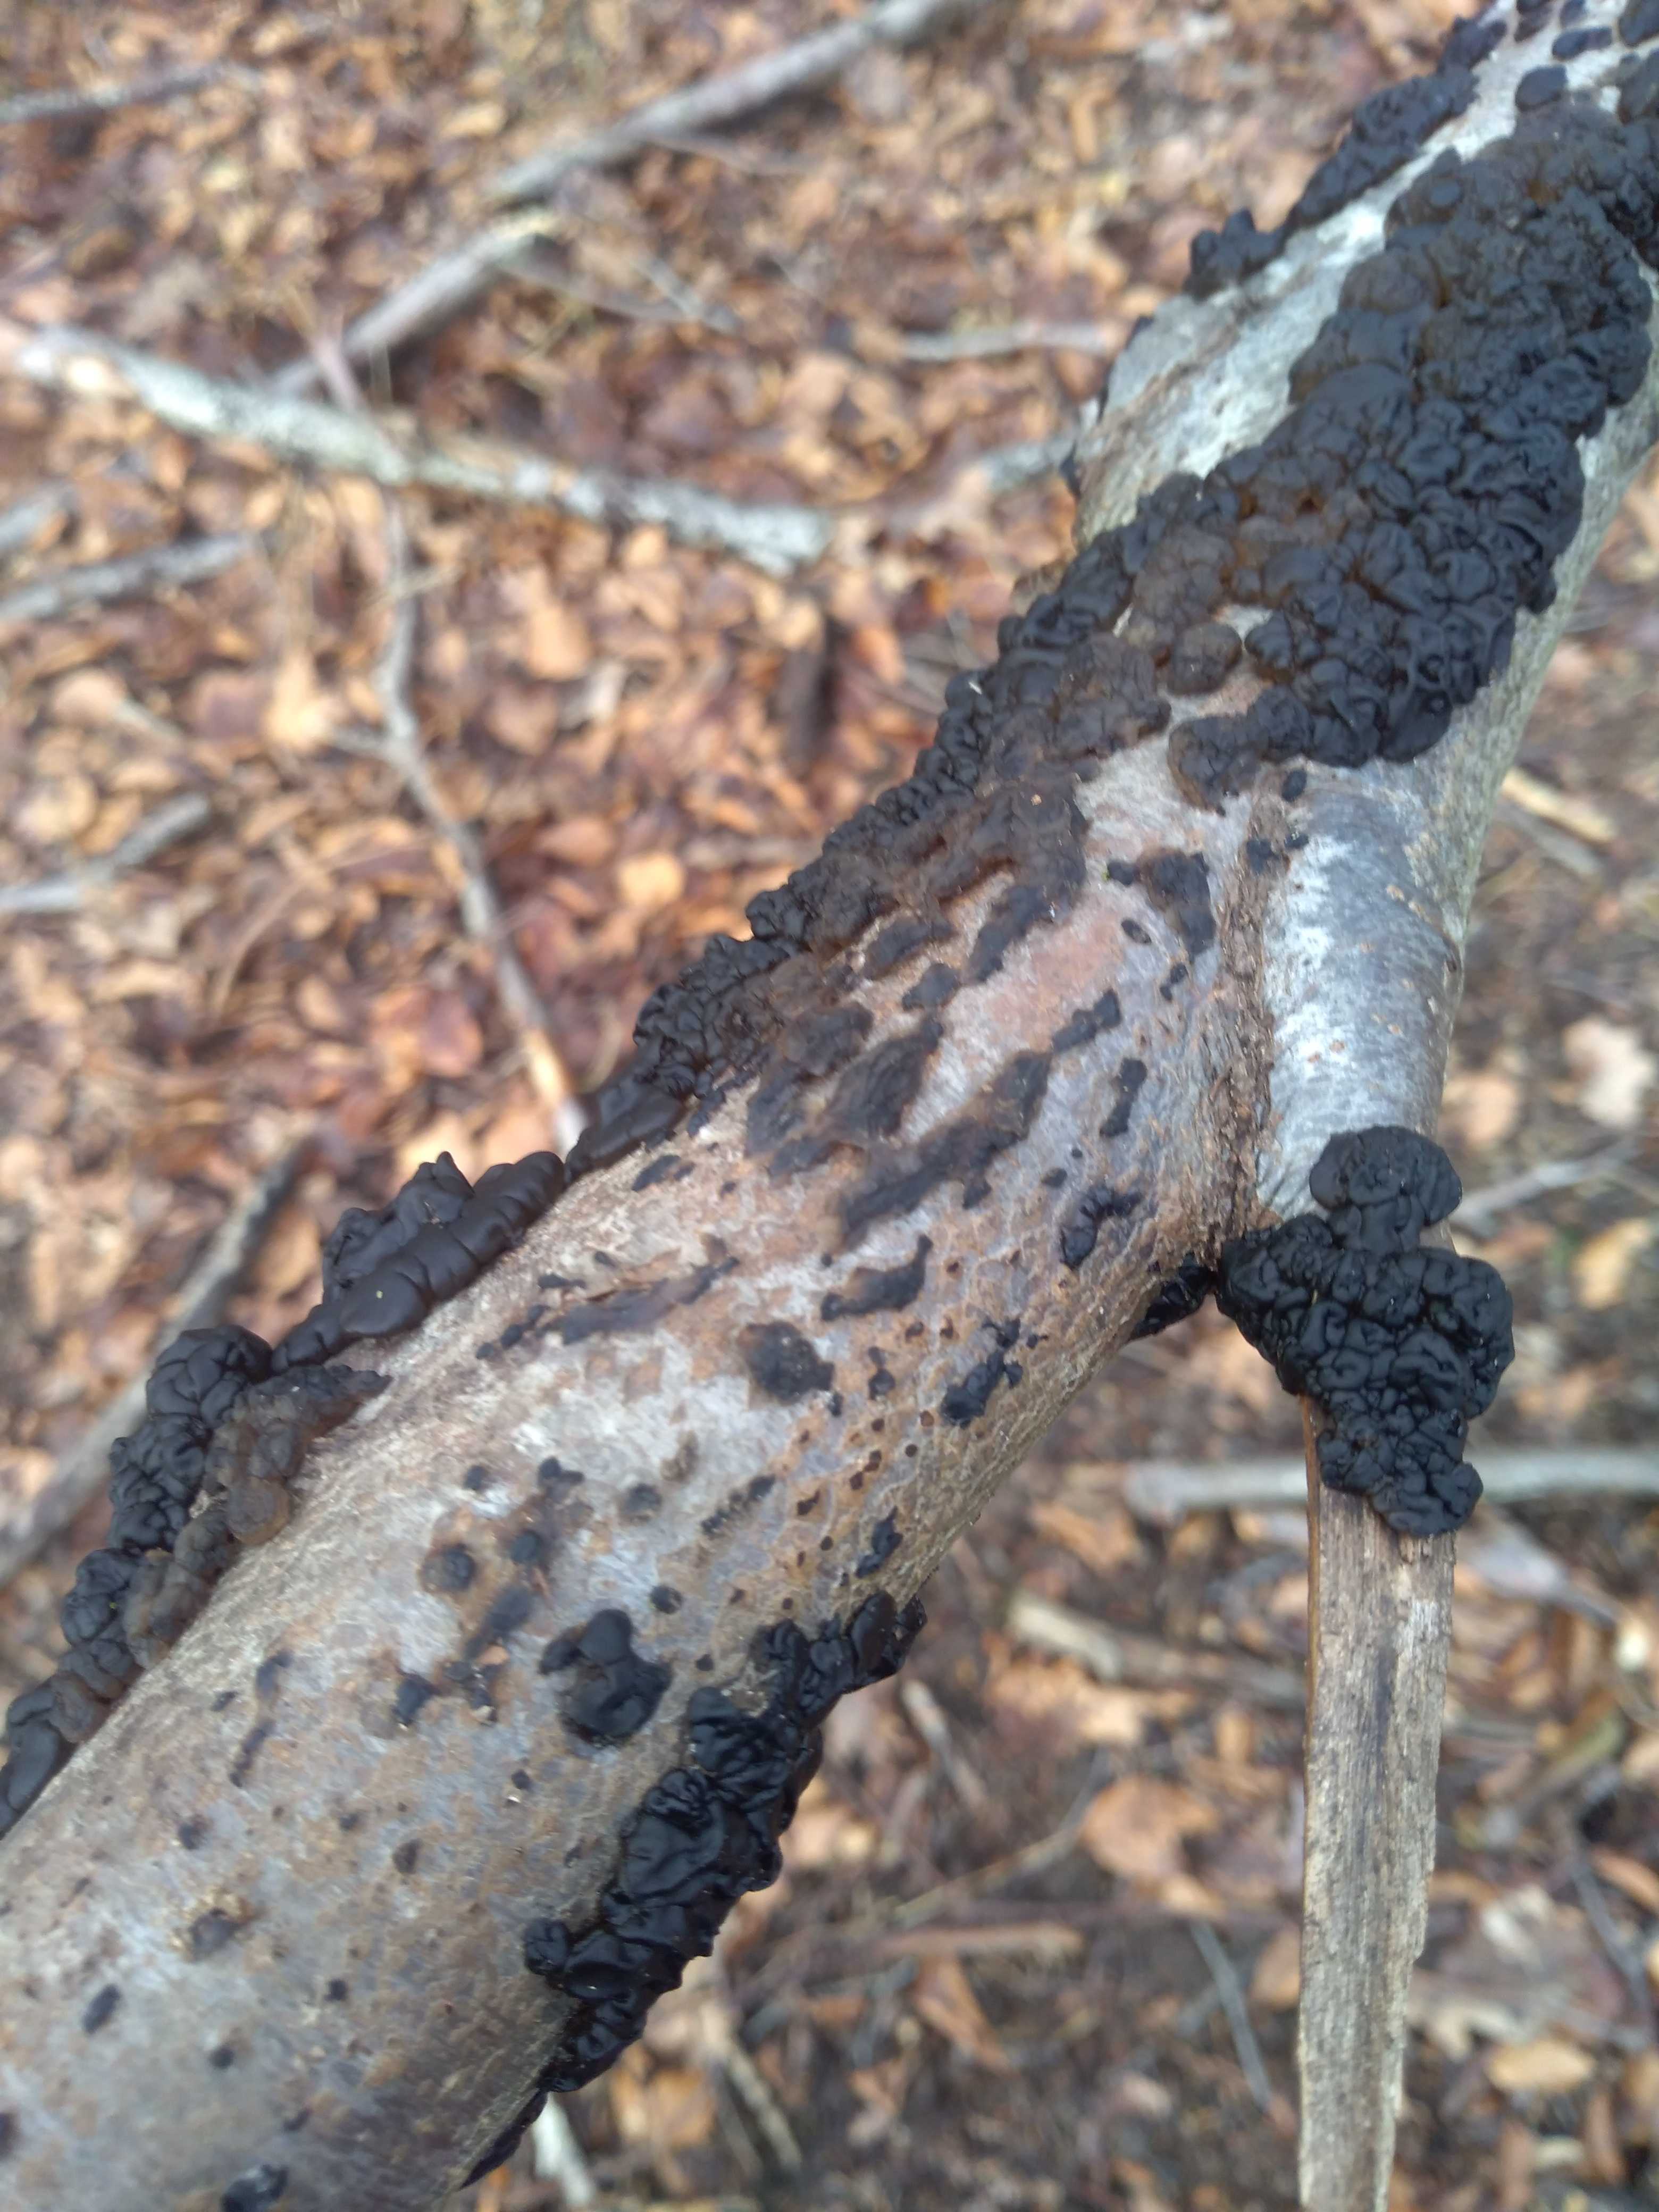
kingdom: Fungi
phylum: Basidiomycota
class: Agaricomycetes
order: Auriculariales
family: Auriculariaceae
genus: Exidia
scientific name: Exidia nigricans
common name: almindelig bævretop
